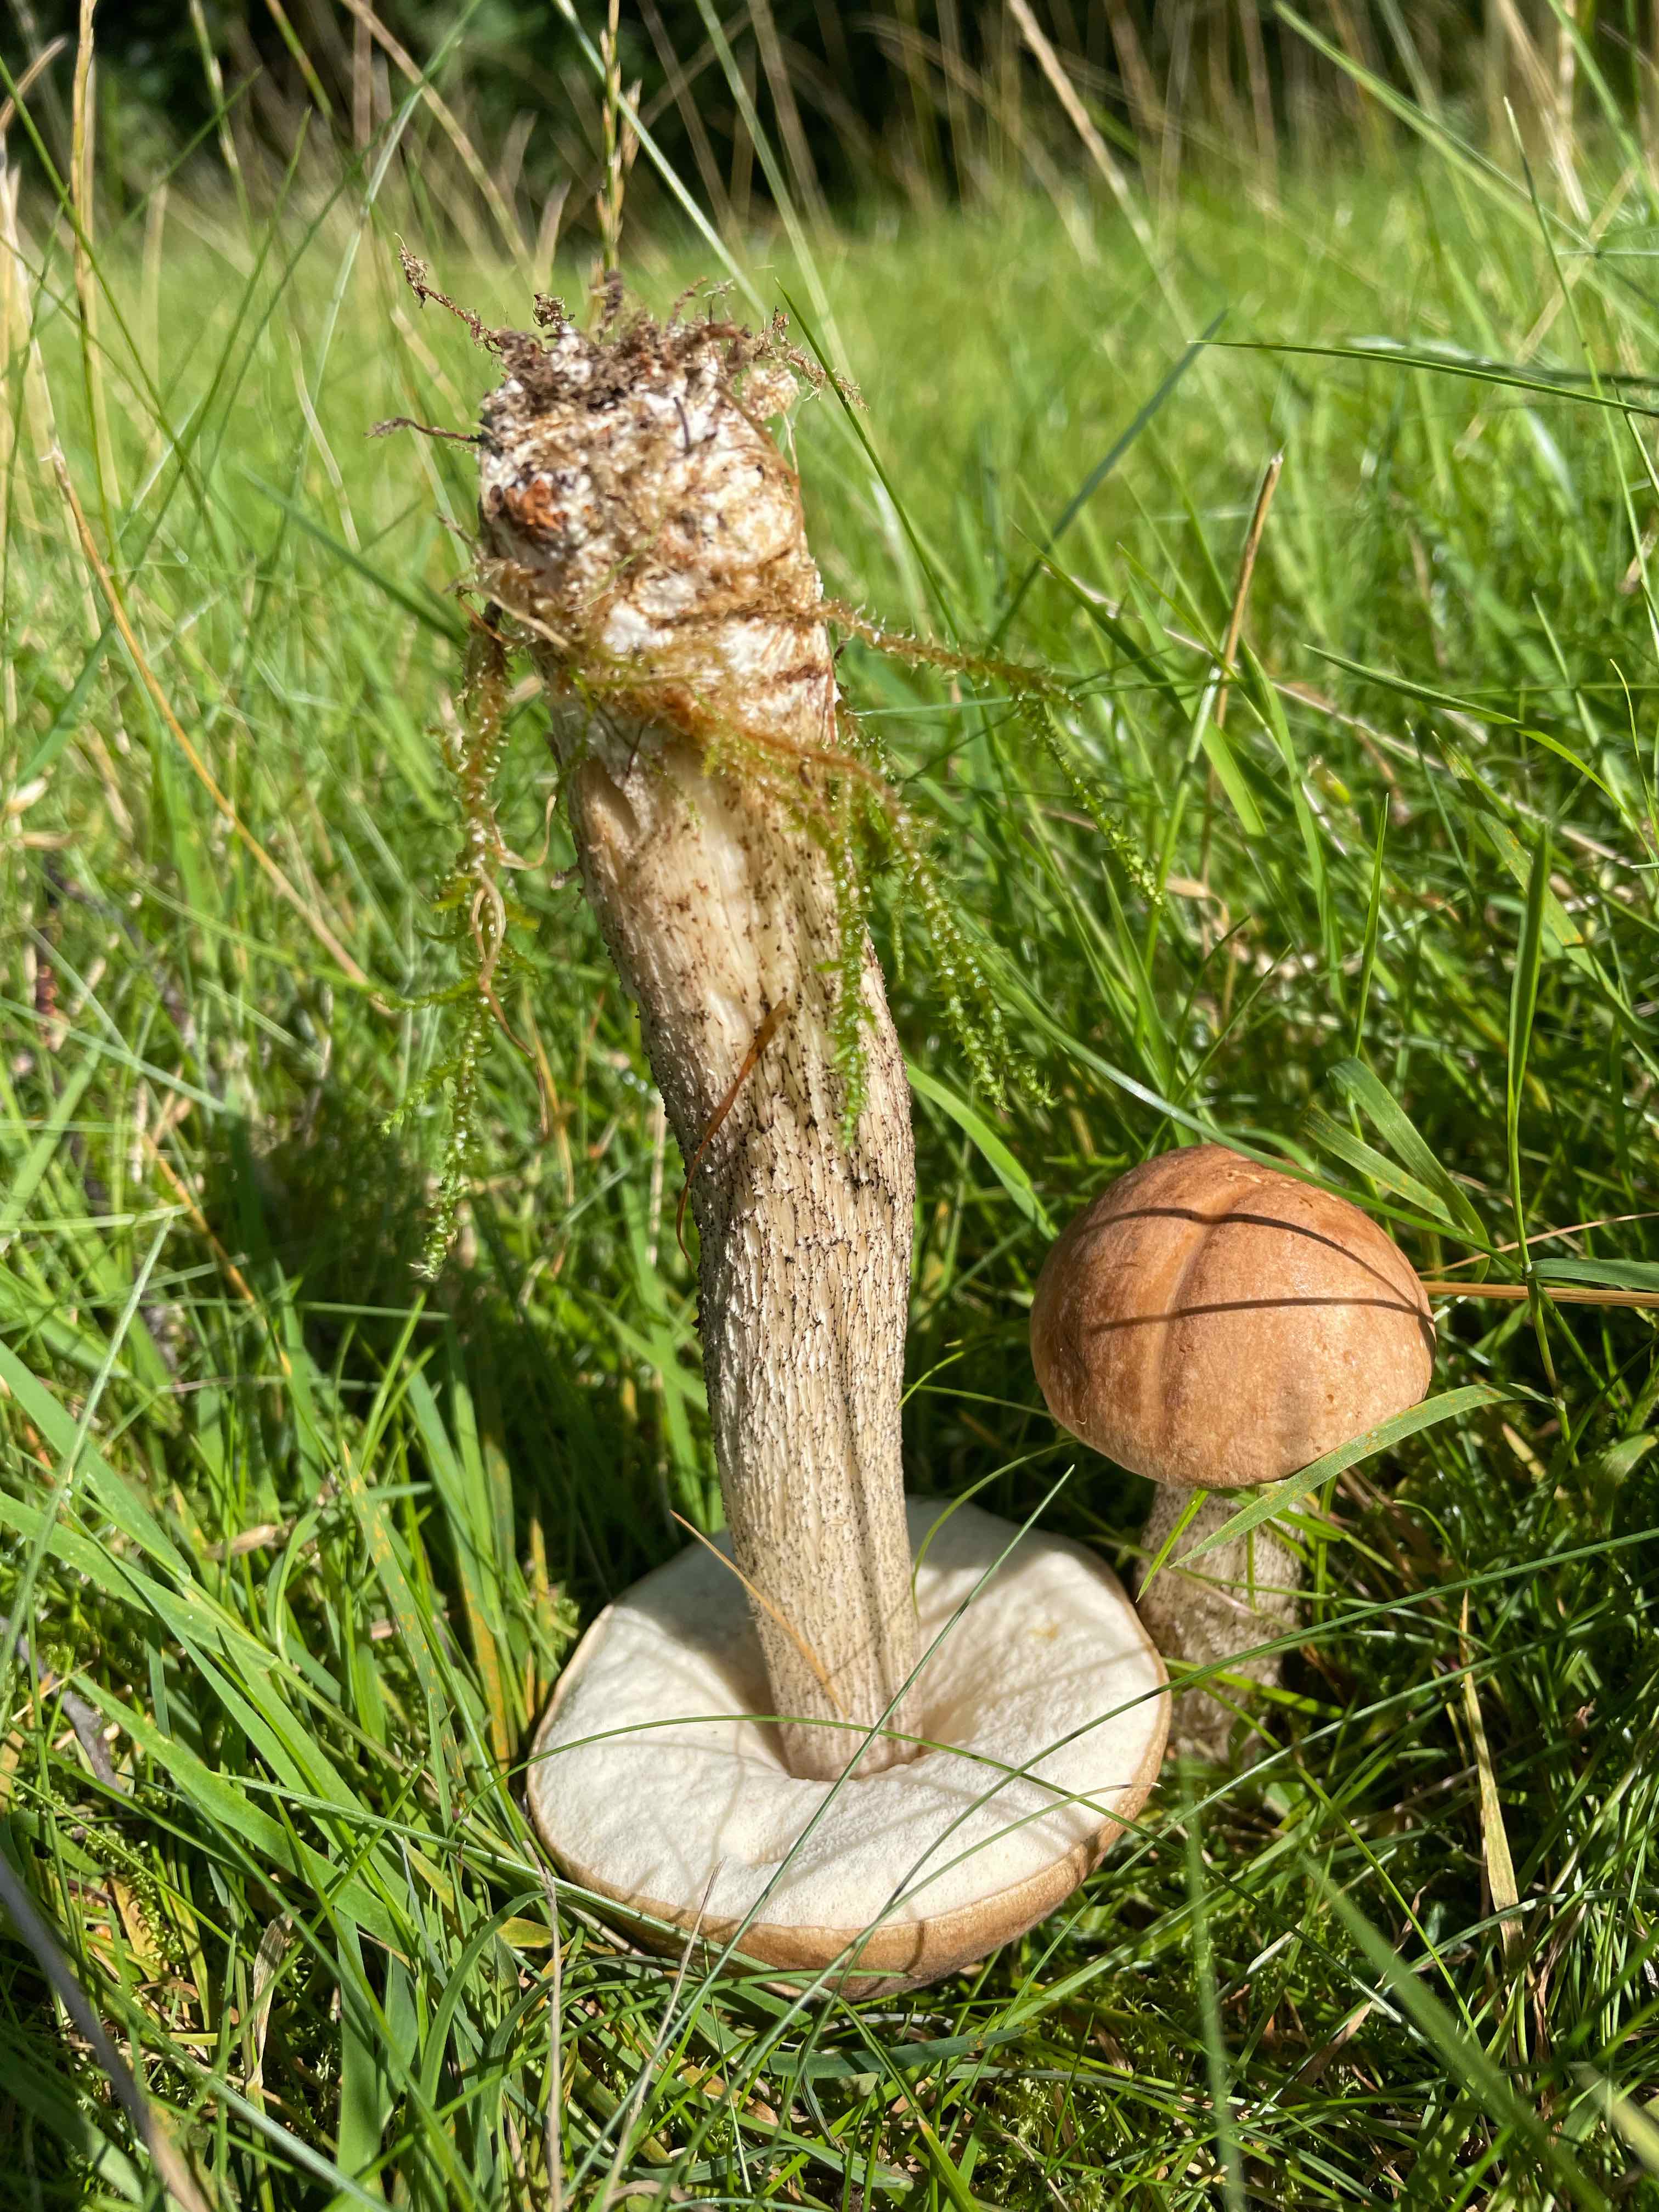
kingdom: Fungi
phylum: Basidiomycota
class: Agaricomycetes
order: Boletales
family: Boletaceae
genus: Leccinum
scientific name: Leccinum scabrum
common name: brun skælrørhat
